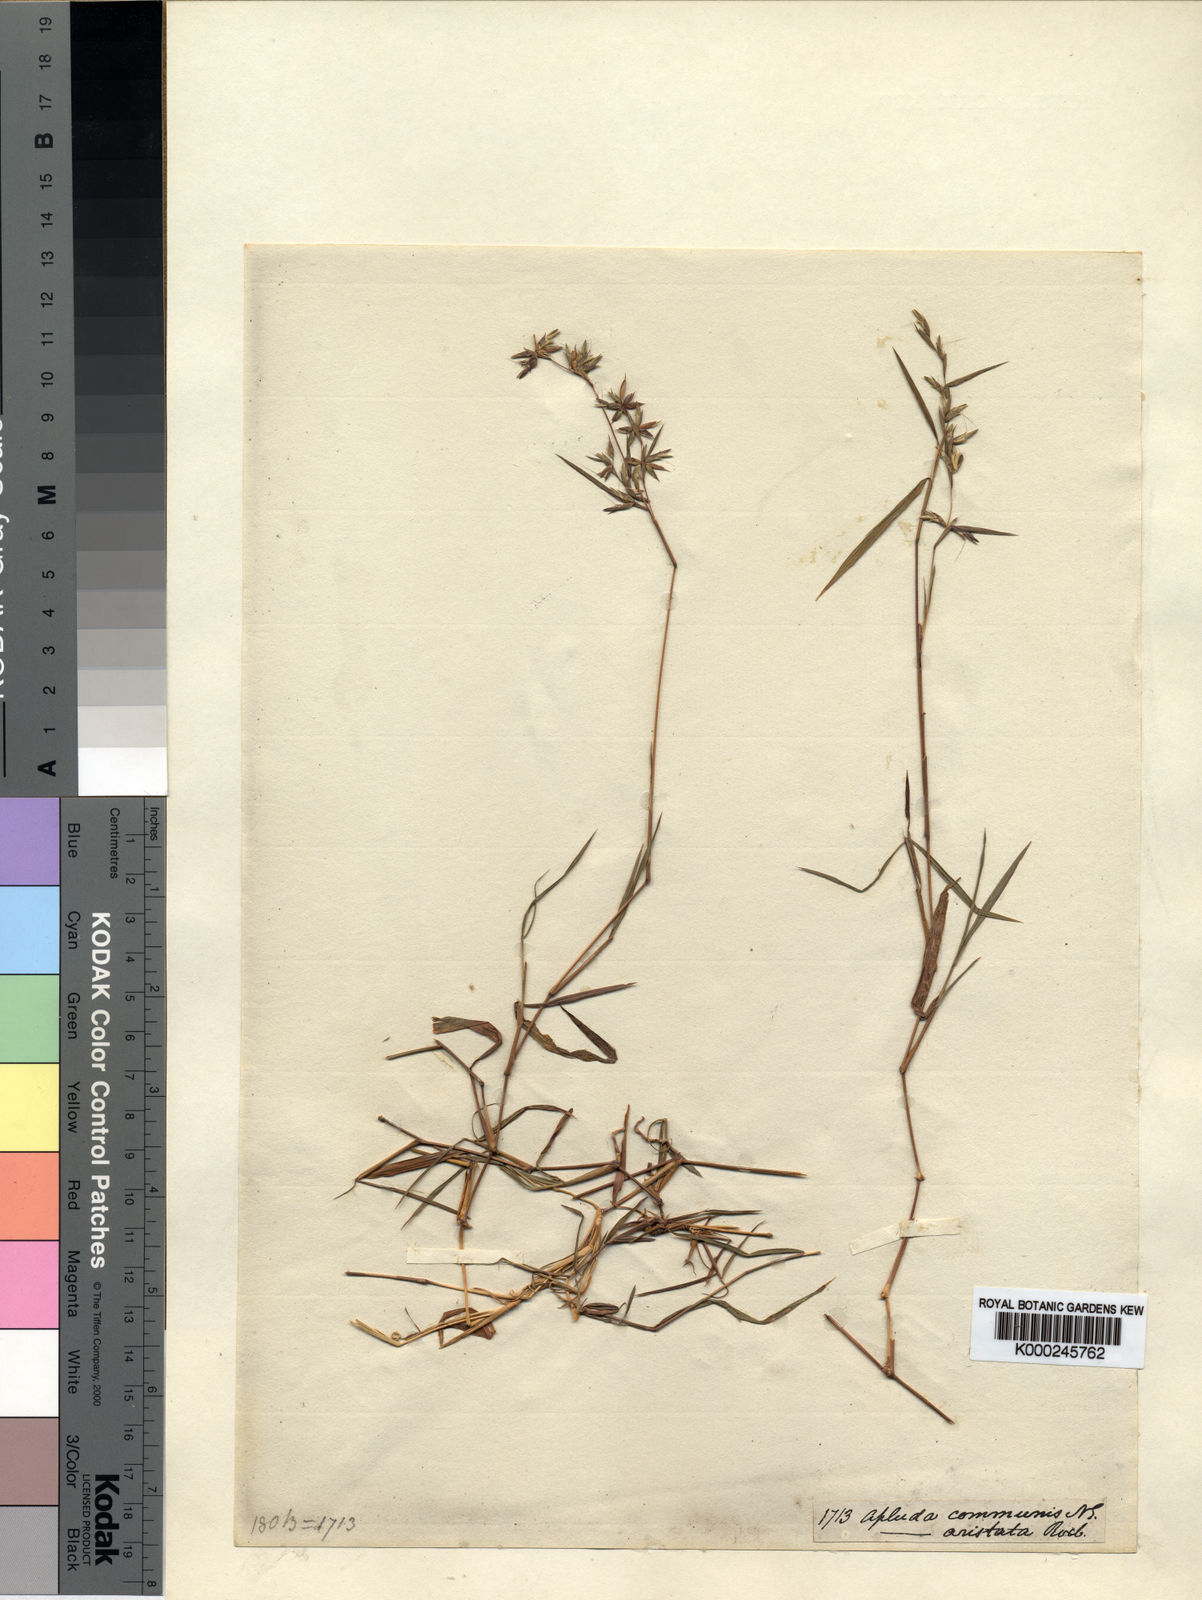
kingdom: Plantae
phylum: Tracheophyta
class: Liliopsida
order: Poales
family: Poaceae
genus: Apluda
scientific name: Apluda mutica
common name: Mauritian grass
